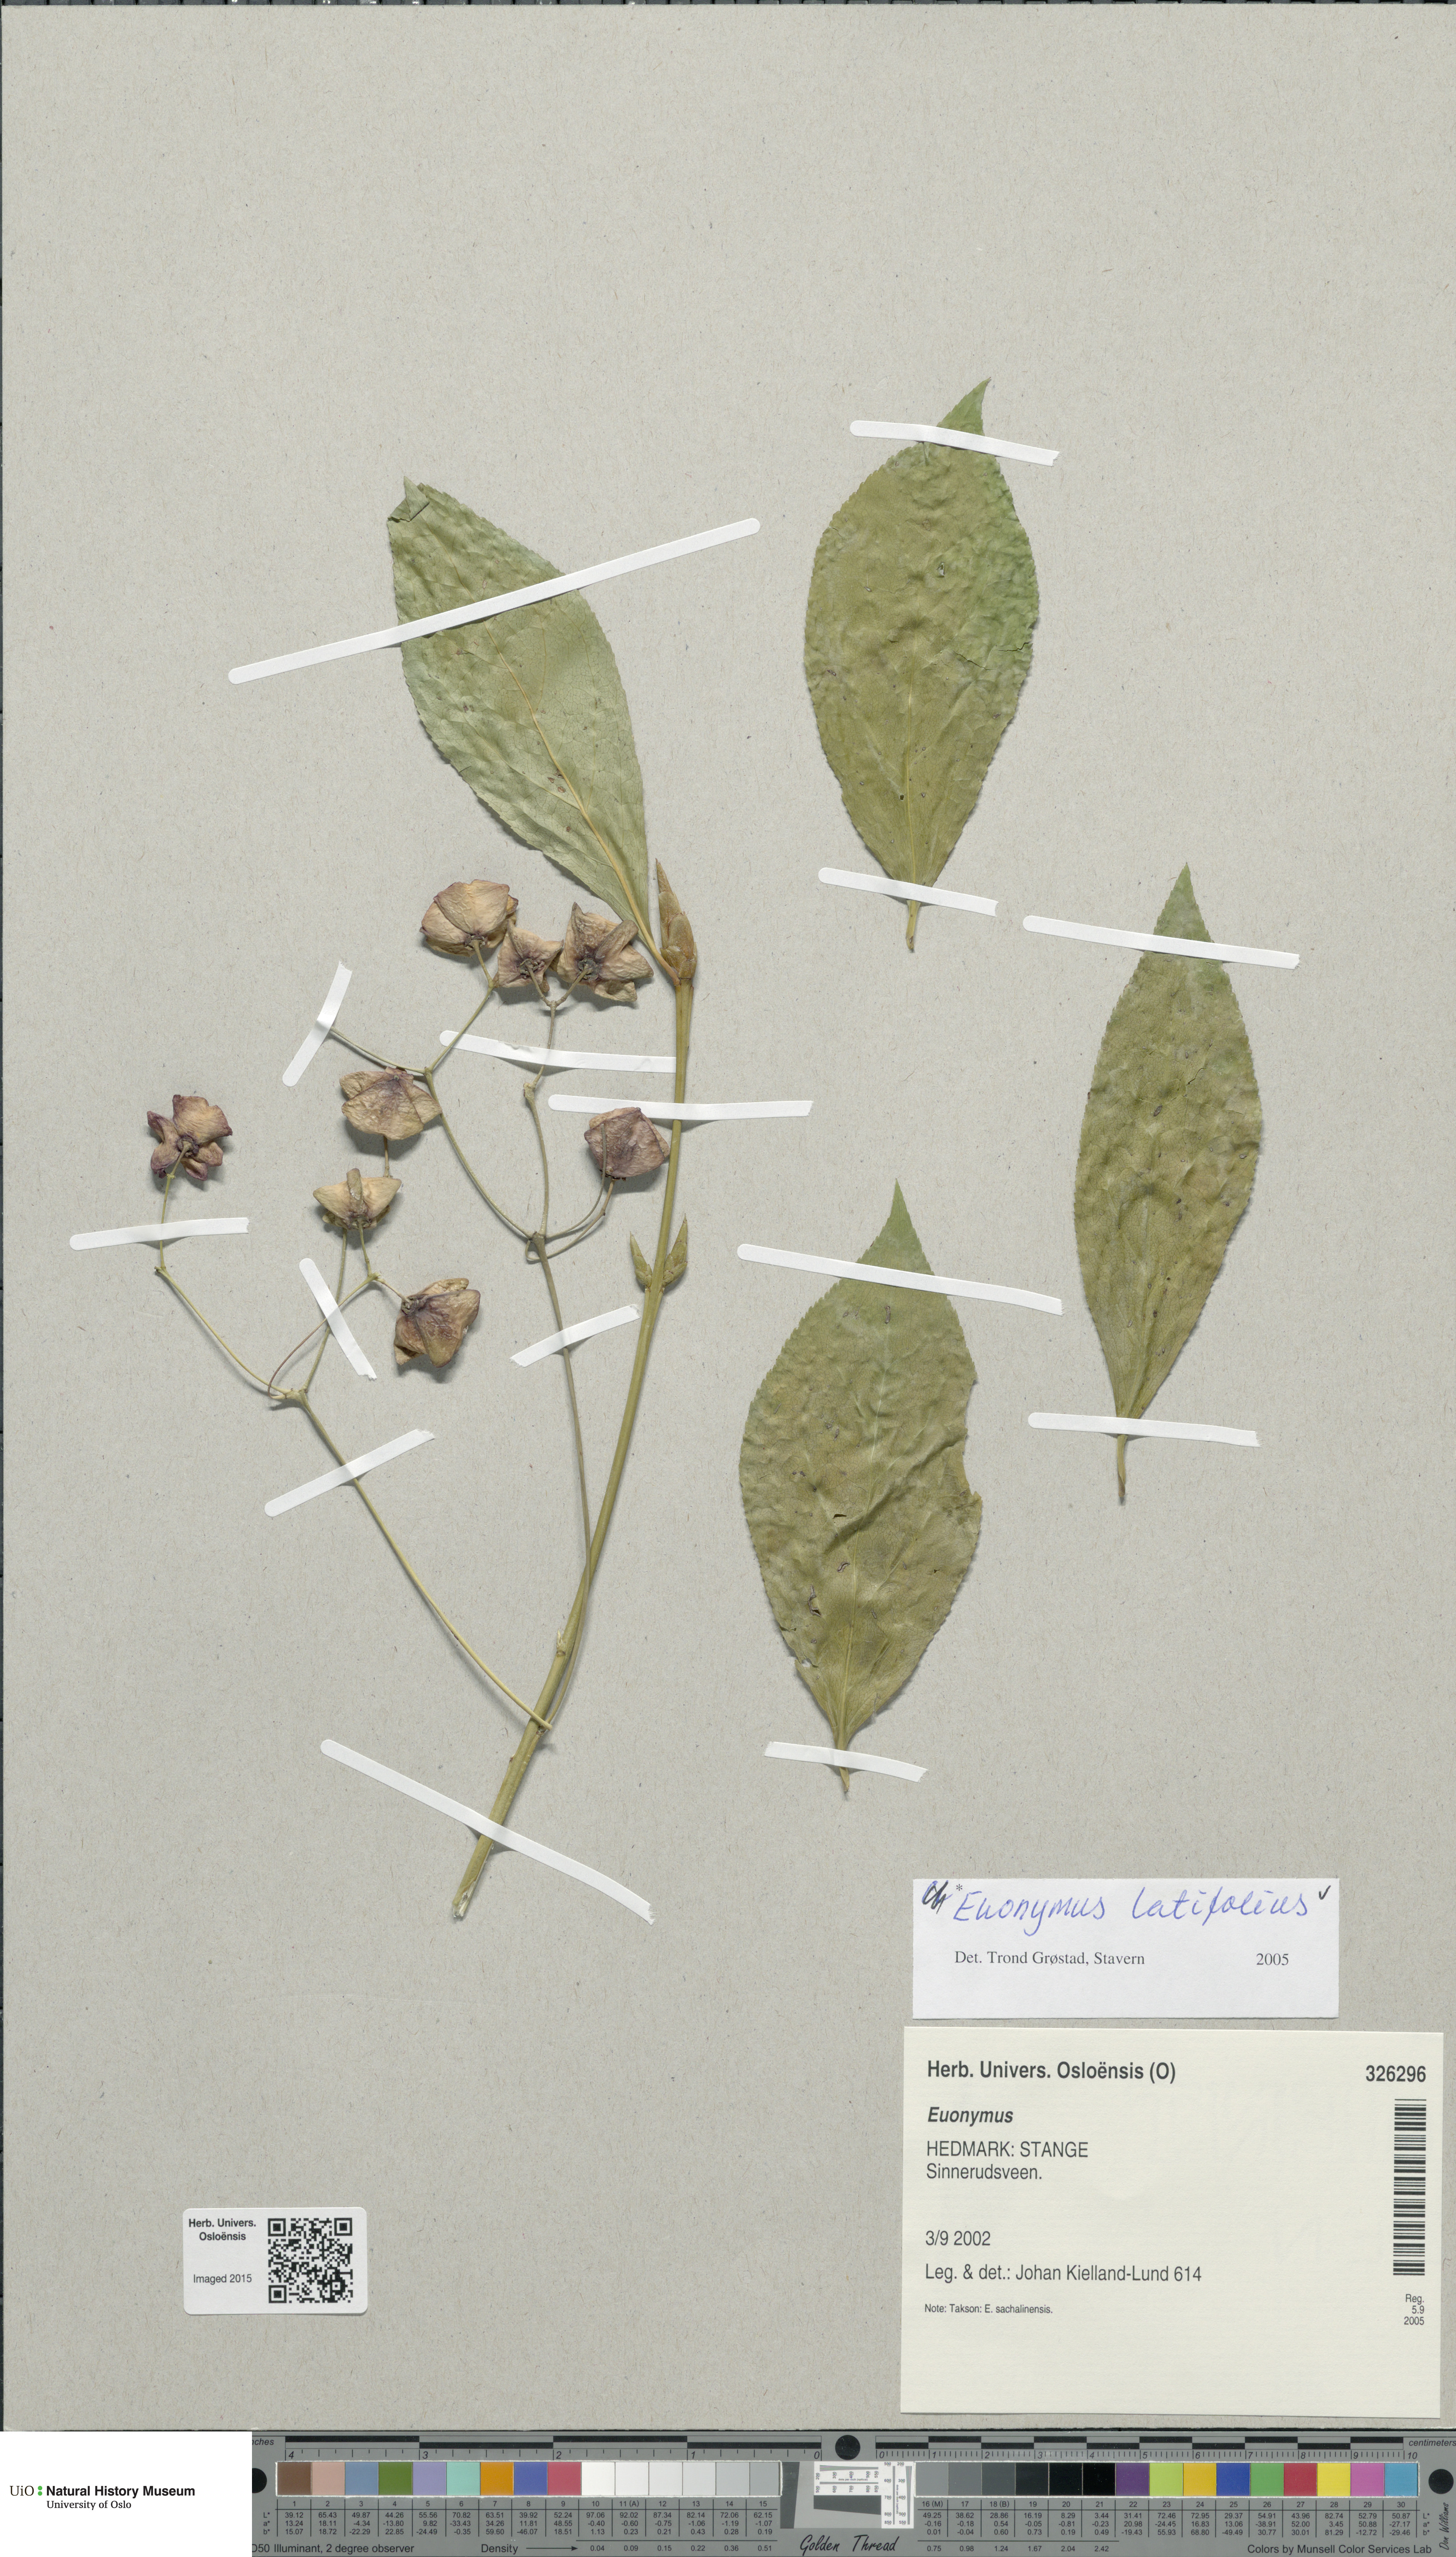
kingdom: Plantae
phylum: Tracheophyta
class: Magnoliopsida
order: Celastrales
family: Celastraceae
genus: Euonymus
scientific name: Euonymus latifolius
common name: Large-leaved spindle
